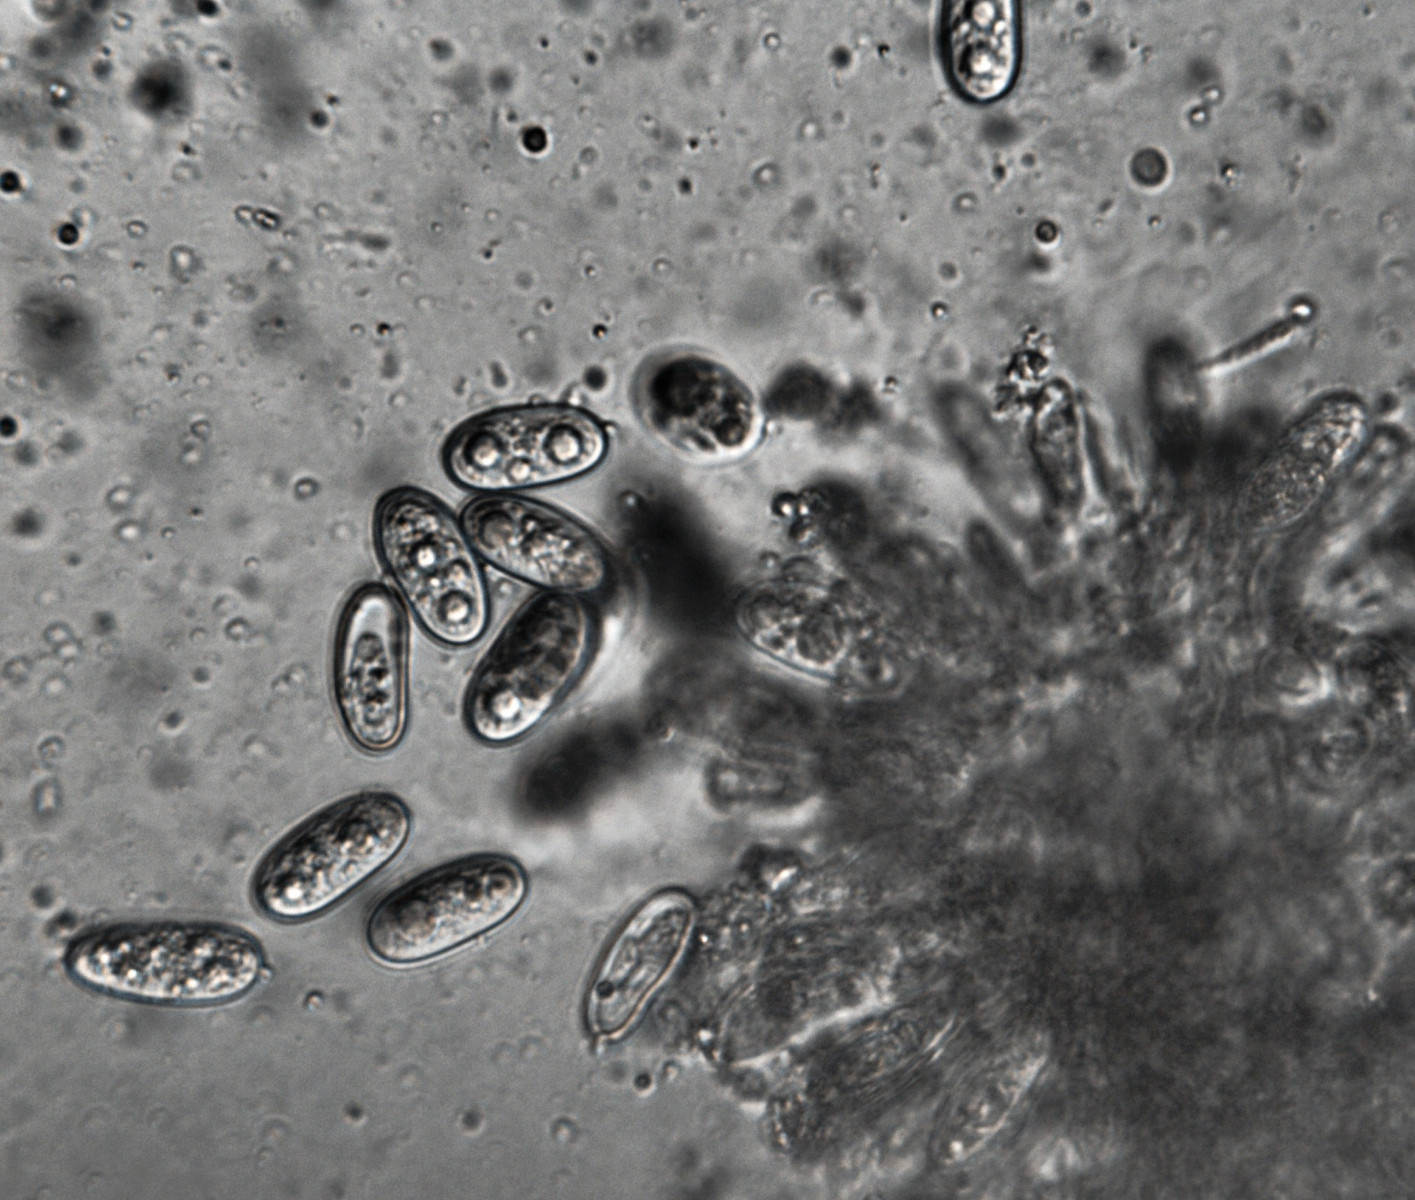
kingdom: Fungi
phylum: Ascomycota
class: Sordariomycetes
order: Diaporthales
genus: Botryodiplodia
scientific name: Botryodiplodia fraxini
